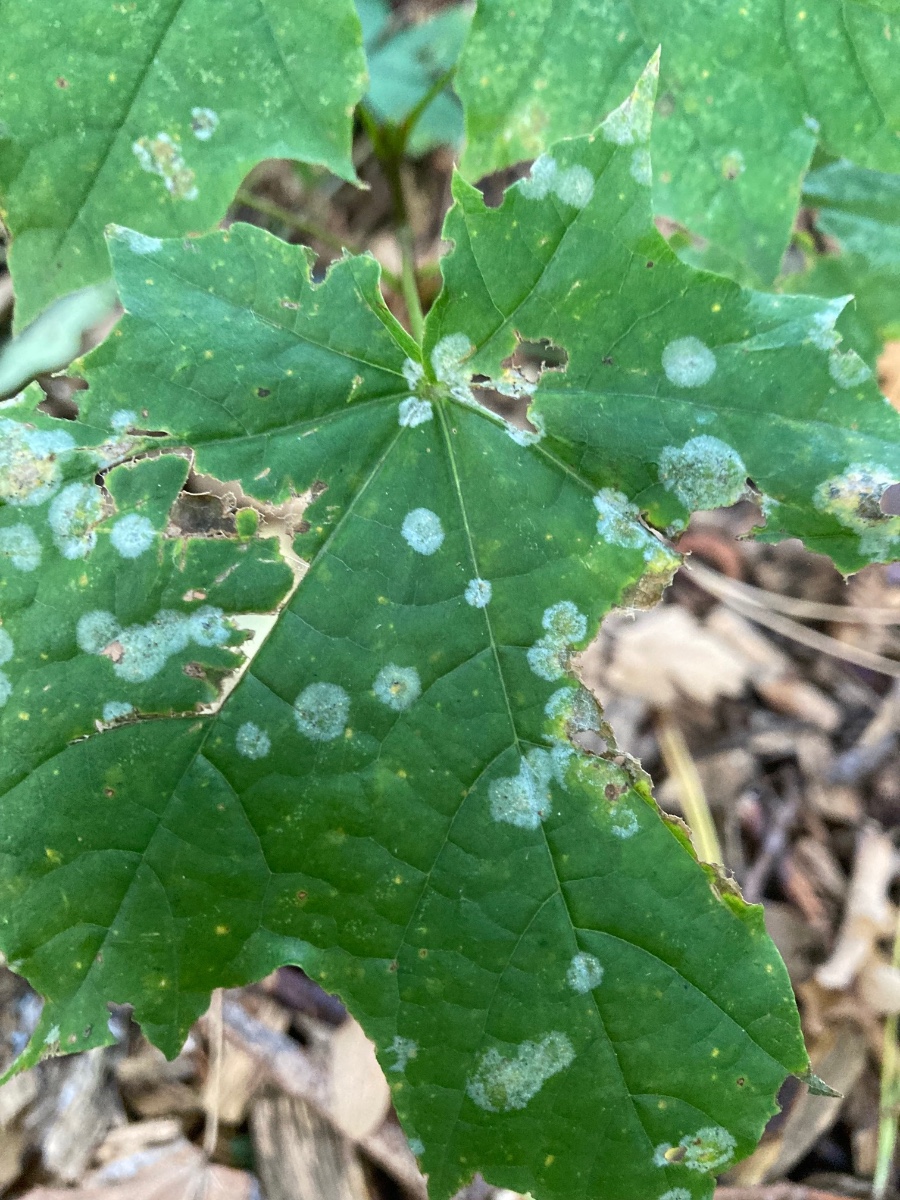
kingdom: Fungi
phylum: Ascomycota
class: Leotiomycetes
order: Helotiales
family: Erysiphaceae
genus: Sawadaea
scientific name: Sawadaea tulasnei
